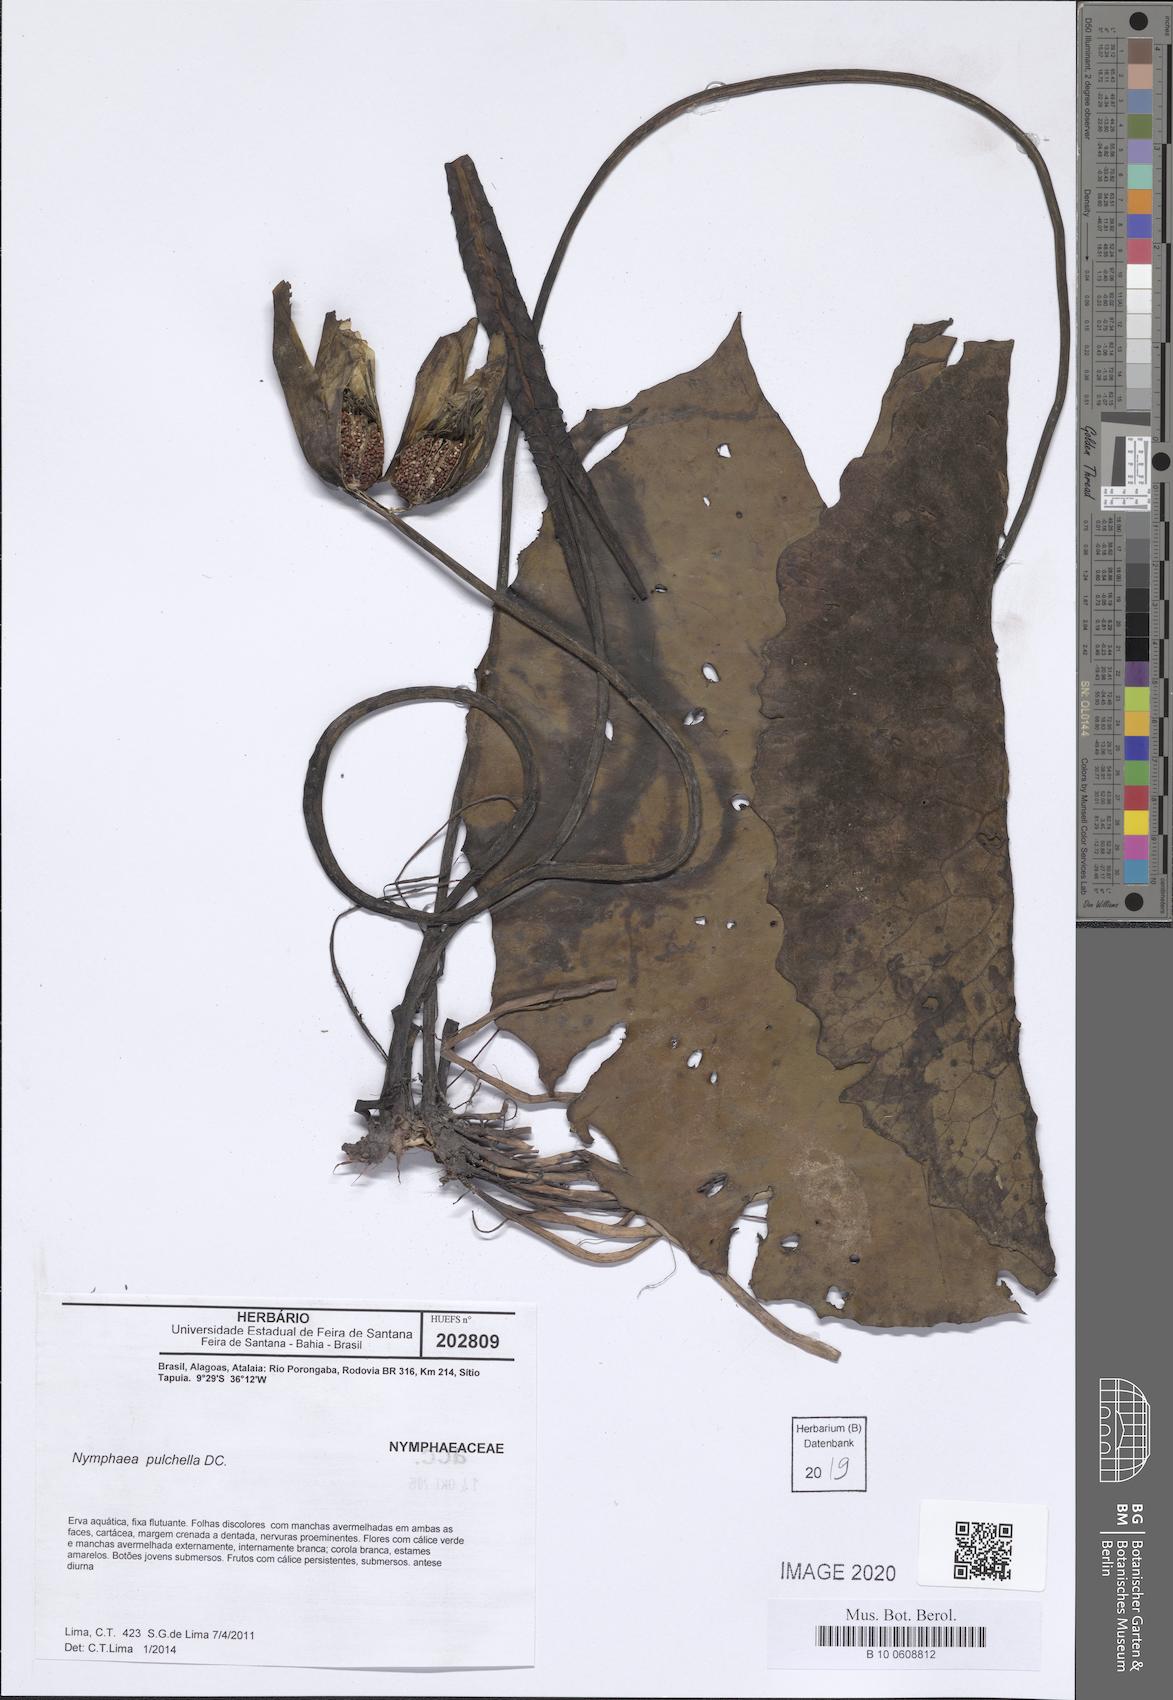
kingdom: Plantae
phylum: Tracheophyta
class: Magnoliopsida
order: Nymphaeales
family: Nymphaeaceae
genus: Nymphaea
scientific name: Nymphaea pulchella
